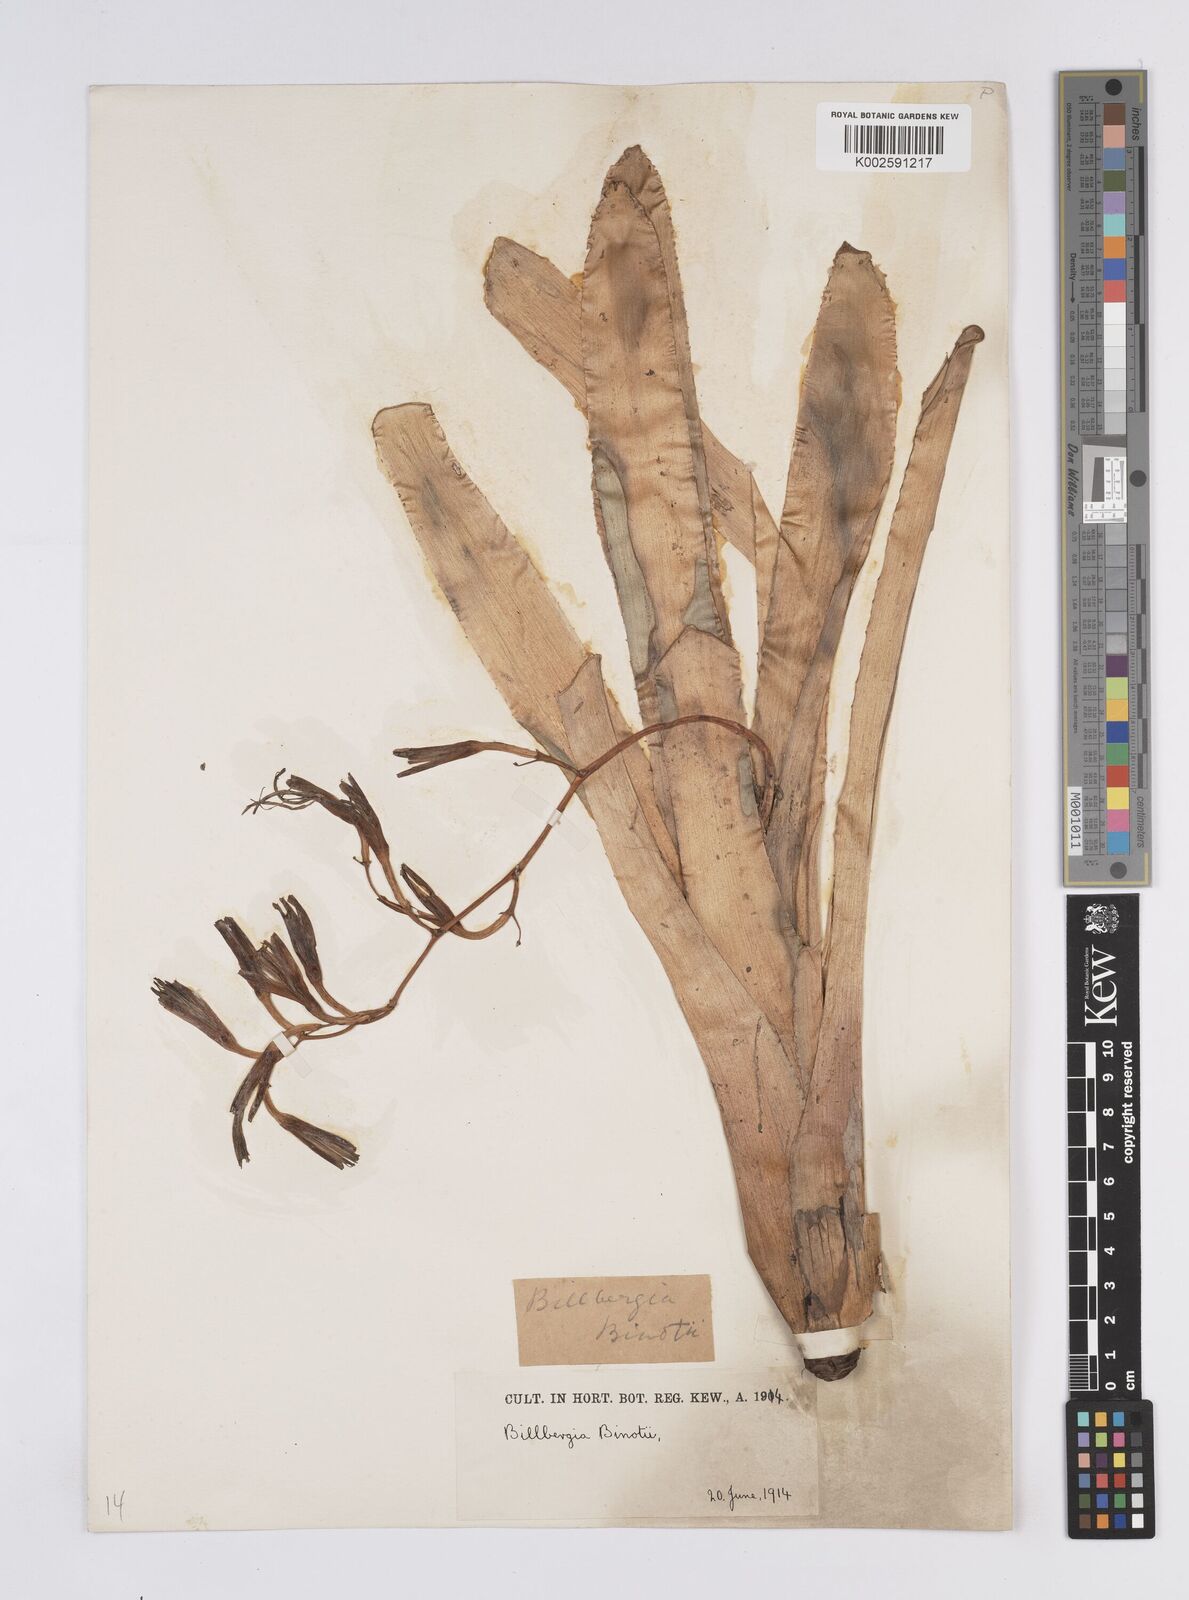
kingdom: Plantae
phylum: Tracheophyta
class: Liliopsida
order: Poales
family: Bromeliaceae
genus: Billbergia
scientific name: Billbergia amoena
